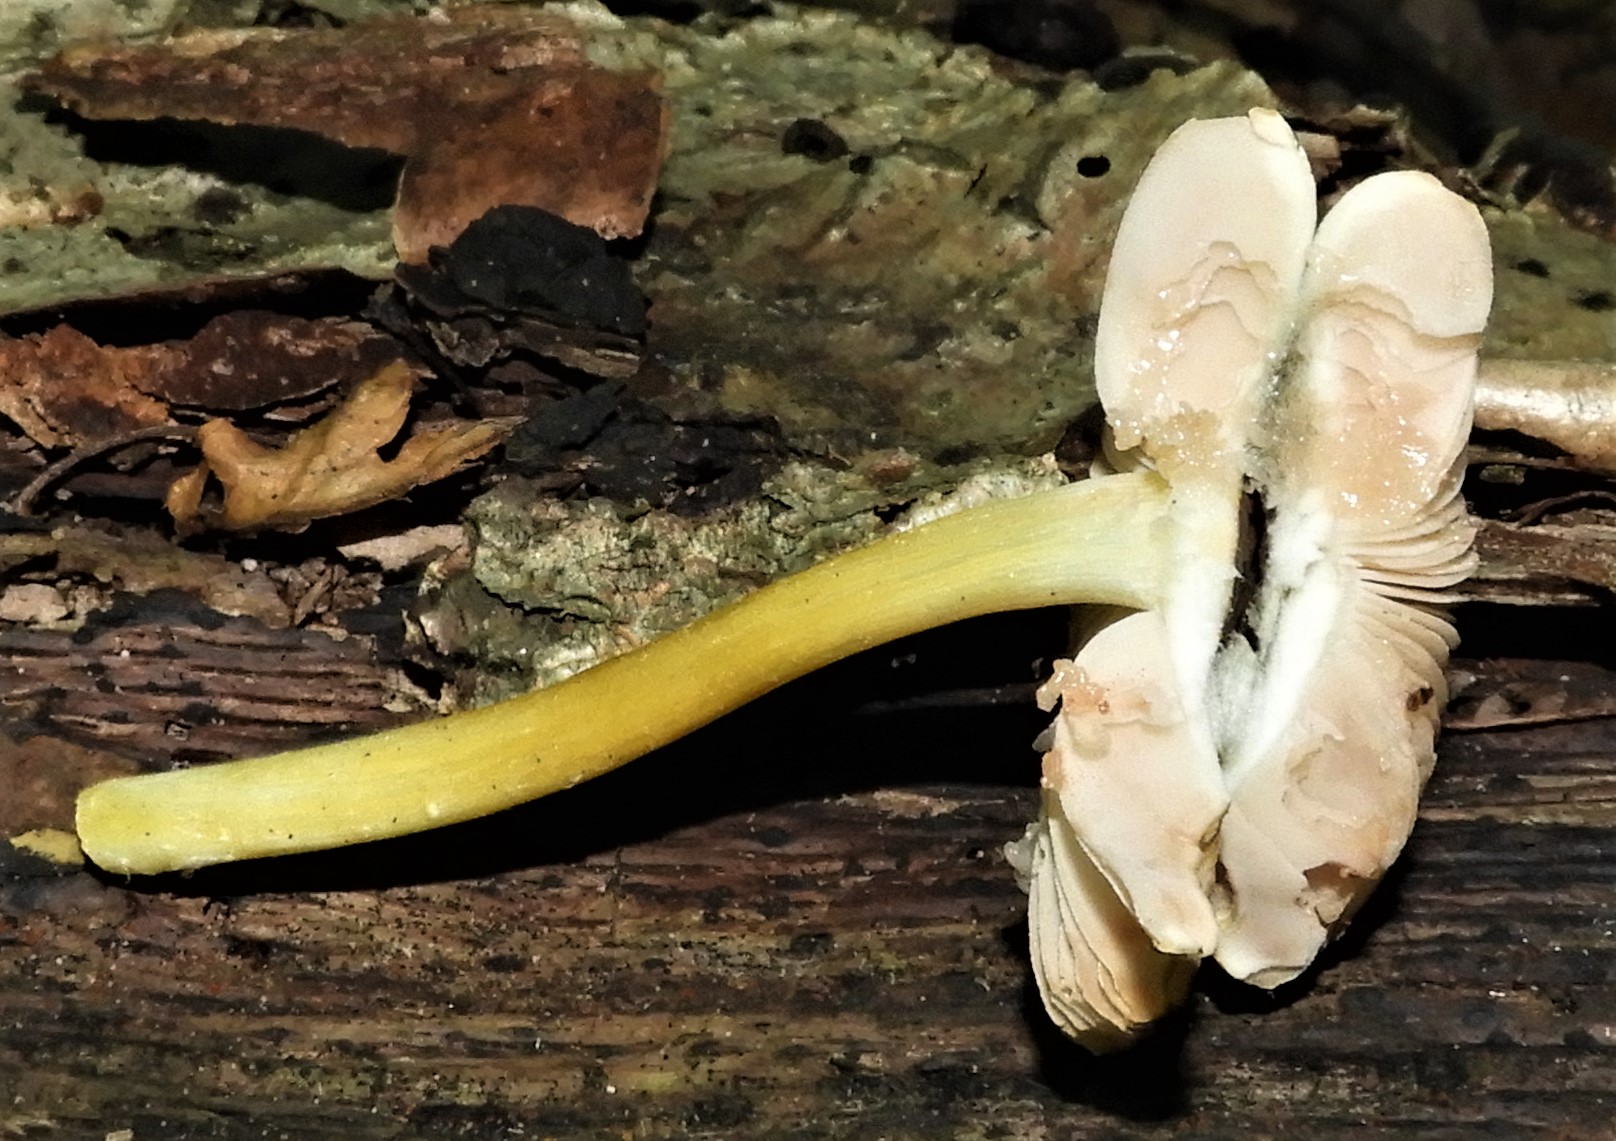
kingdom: Fungi
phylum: Basidiomycota
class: Agaricomycetes
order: Agaricales
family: Pluteaceae
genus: Pluteus
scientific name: Pluteus romellii
